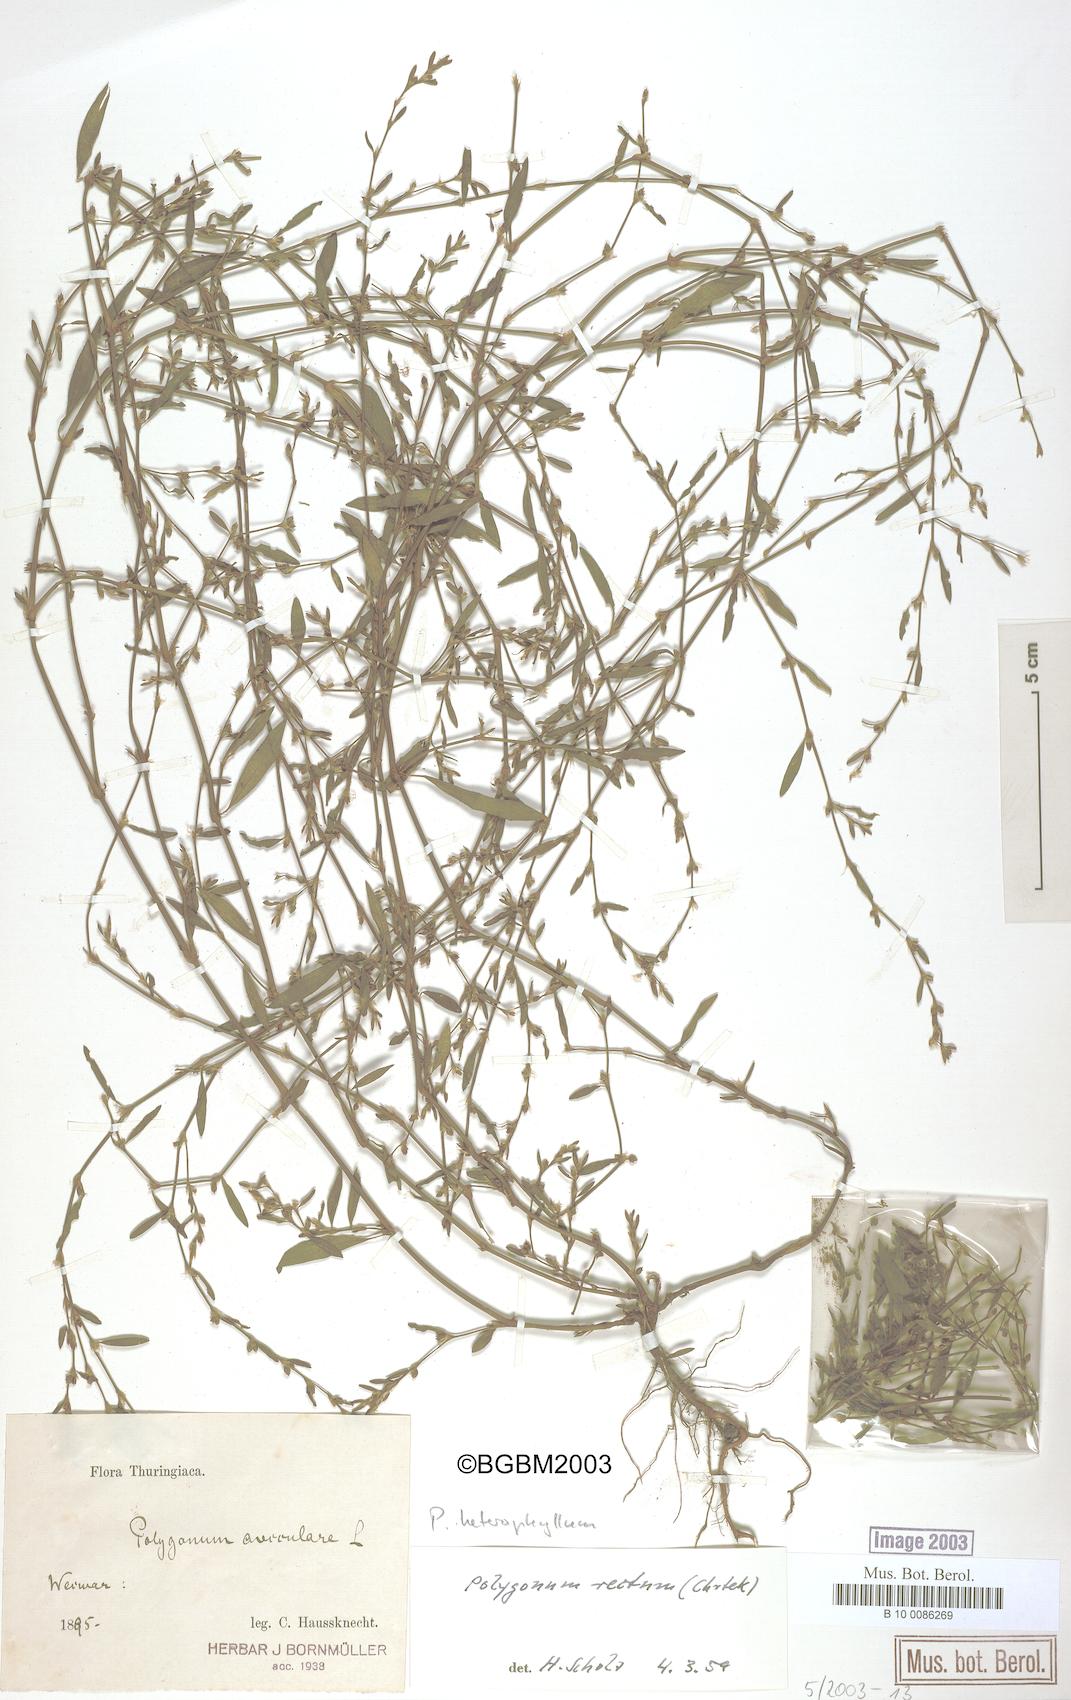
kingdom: Plantae
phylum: Tracheophyta
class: Magnoliopsida
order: Caryophyllales
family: Polygonaceae
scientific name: Polygonaceae
